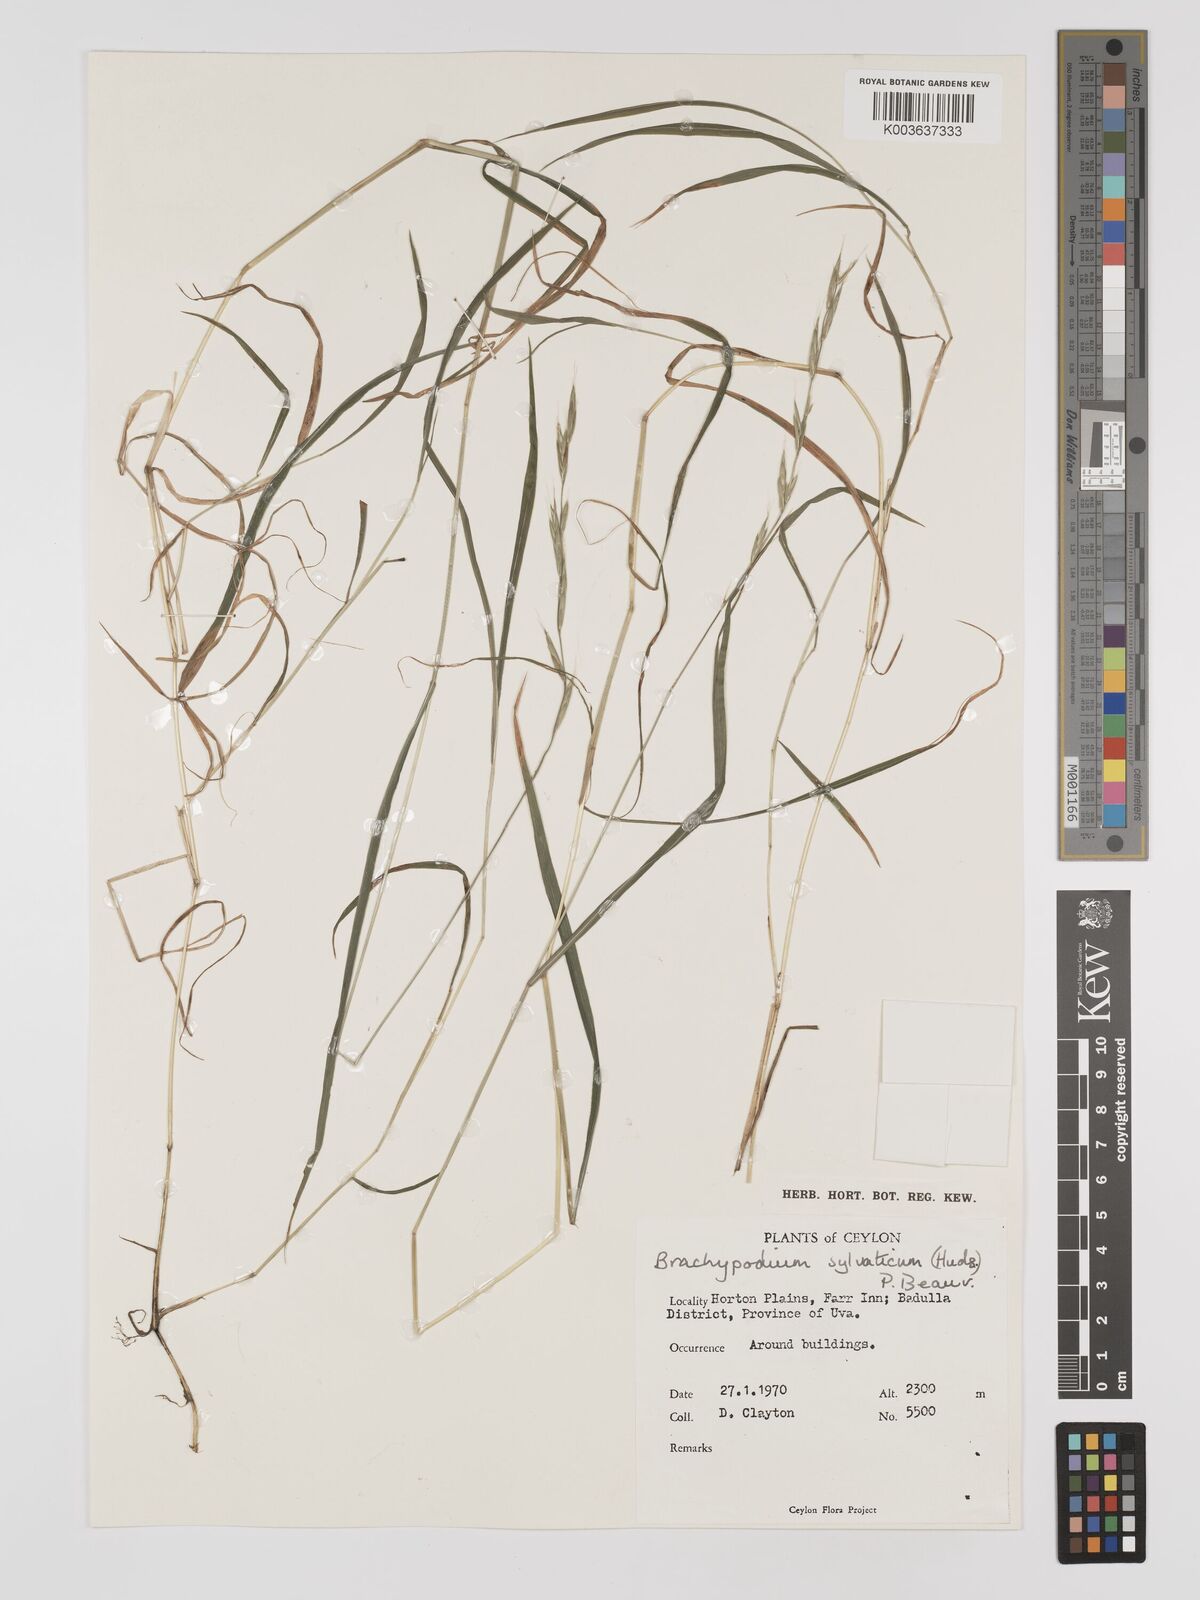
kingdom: Plantae
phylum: Tracheophyta
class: Liliopsida
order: Poales
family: Poaceae
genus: Brachypodium
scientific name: Brachypodium sylvaticum
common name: False-brome
